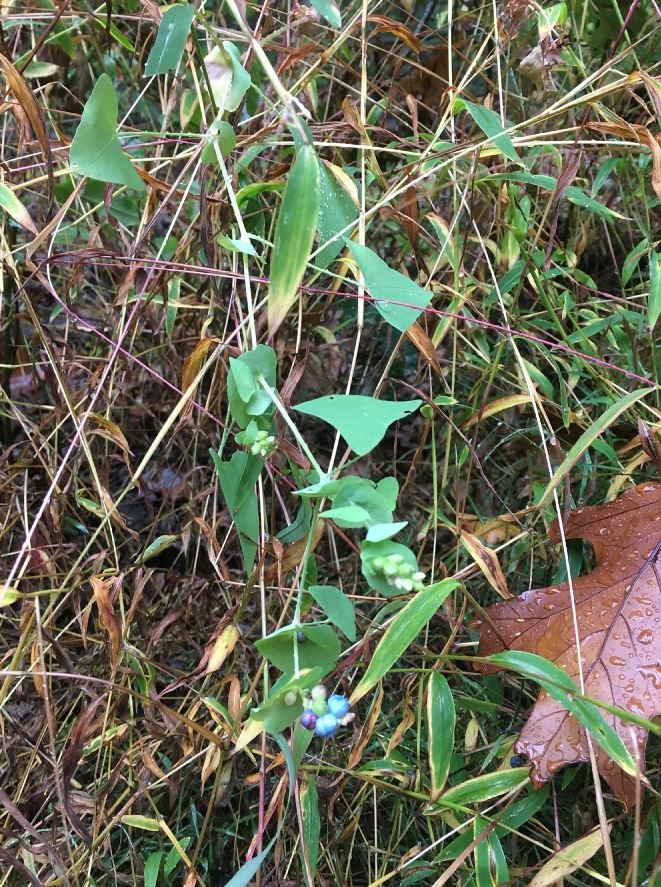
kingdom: Plantae
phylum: Tracheophyta
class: Magnoliopsida
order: Caryophyllales
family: Polygonaceae
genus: Persicaria
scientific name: Persicaria perfoliata
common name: Mile-a-Minute weed
